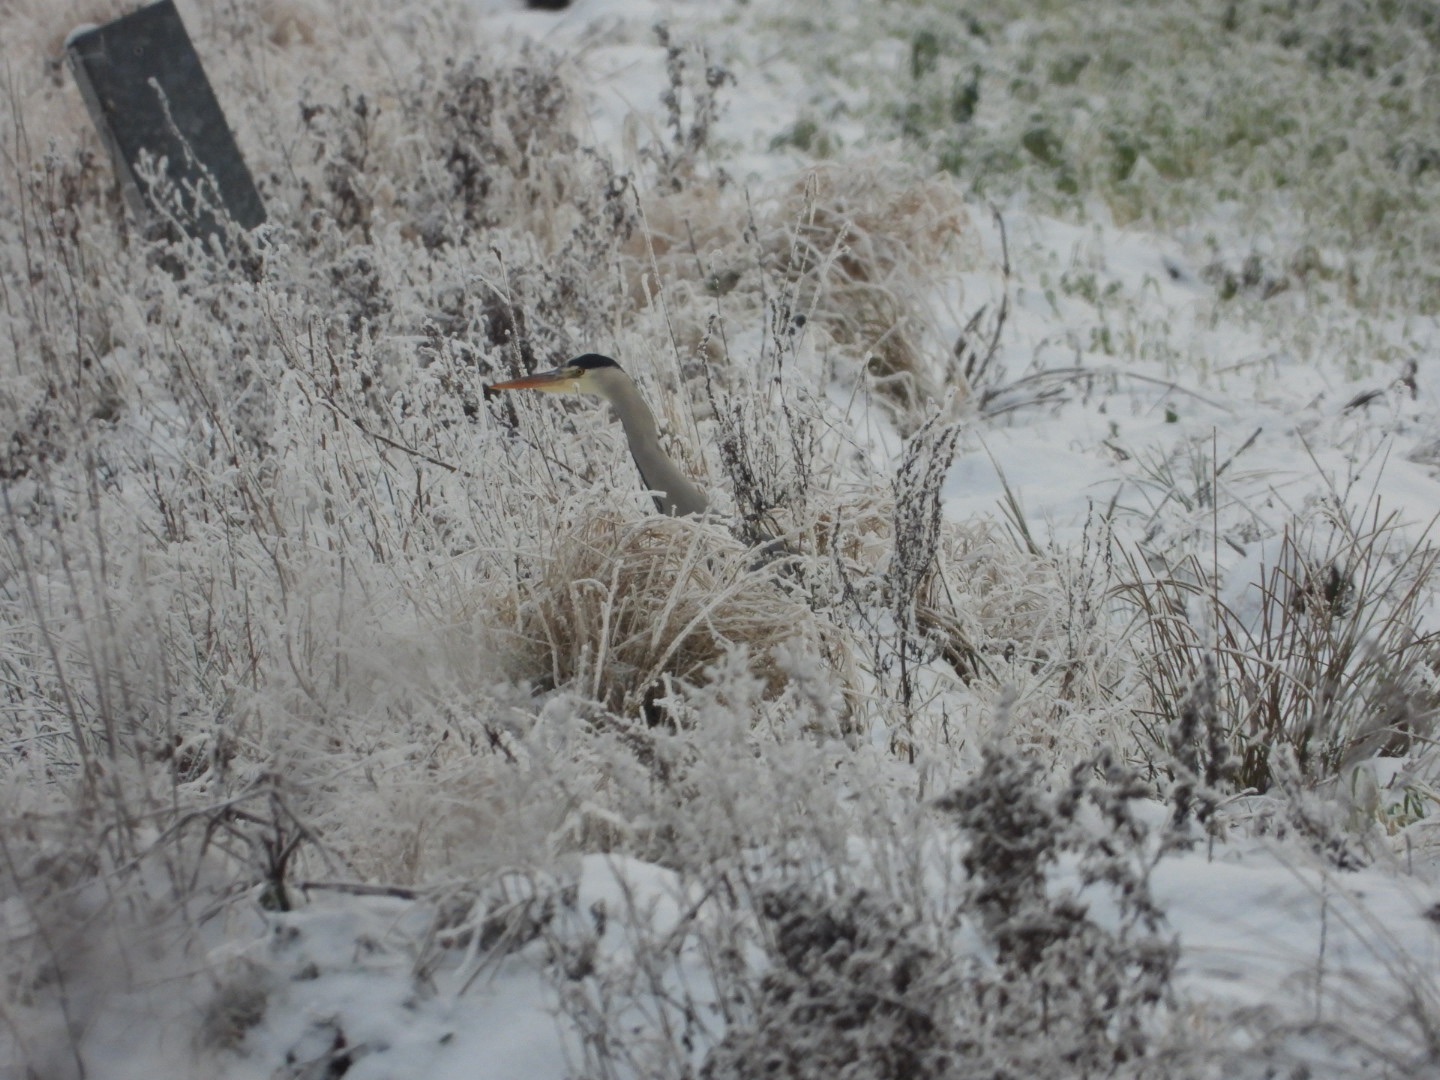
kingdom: Animalia
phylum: Chordata
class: Aves
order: Pelecaniformes
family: Ardeidae
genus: Ardea
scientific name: Ardea cinerea
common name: Fiskehejre
